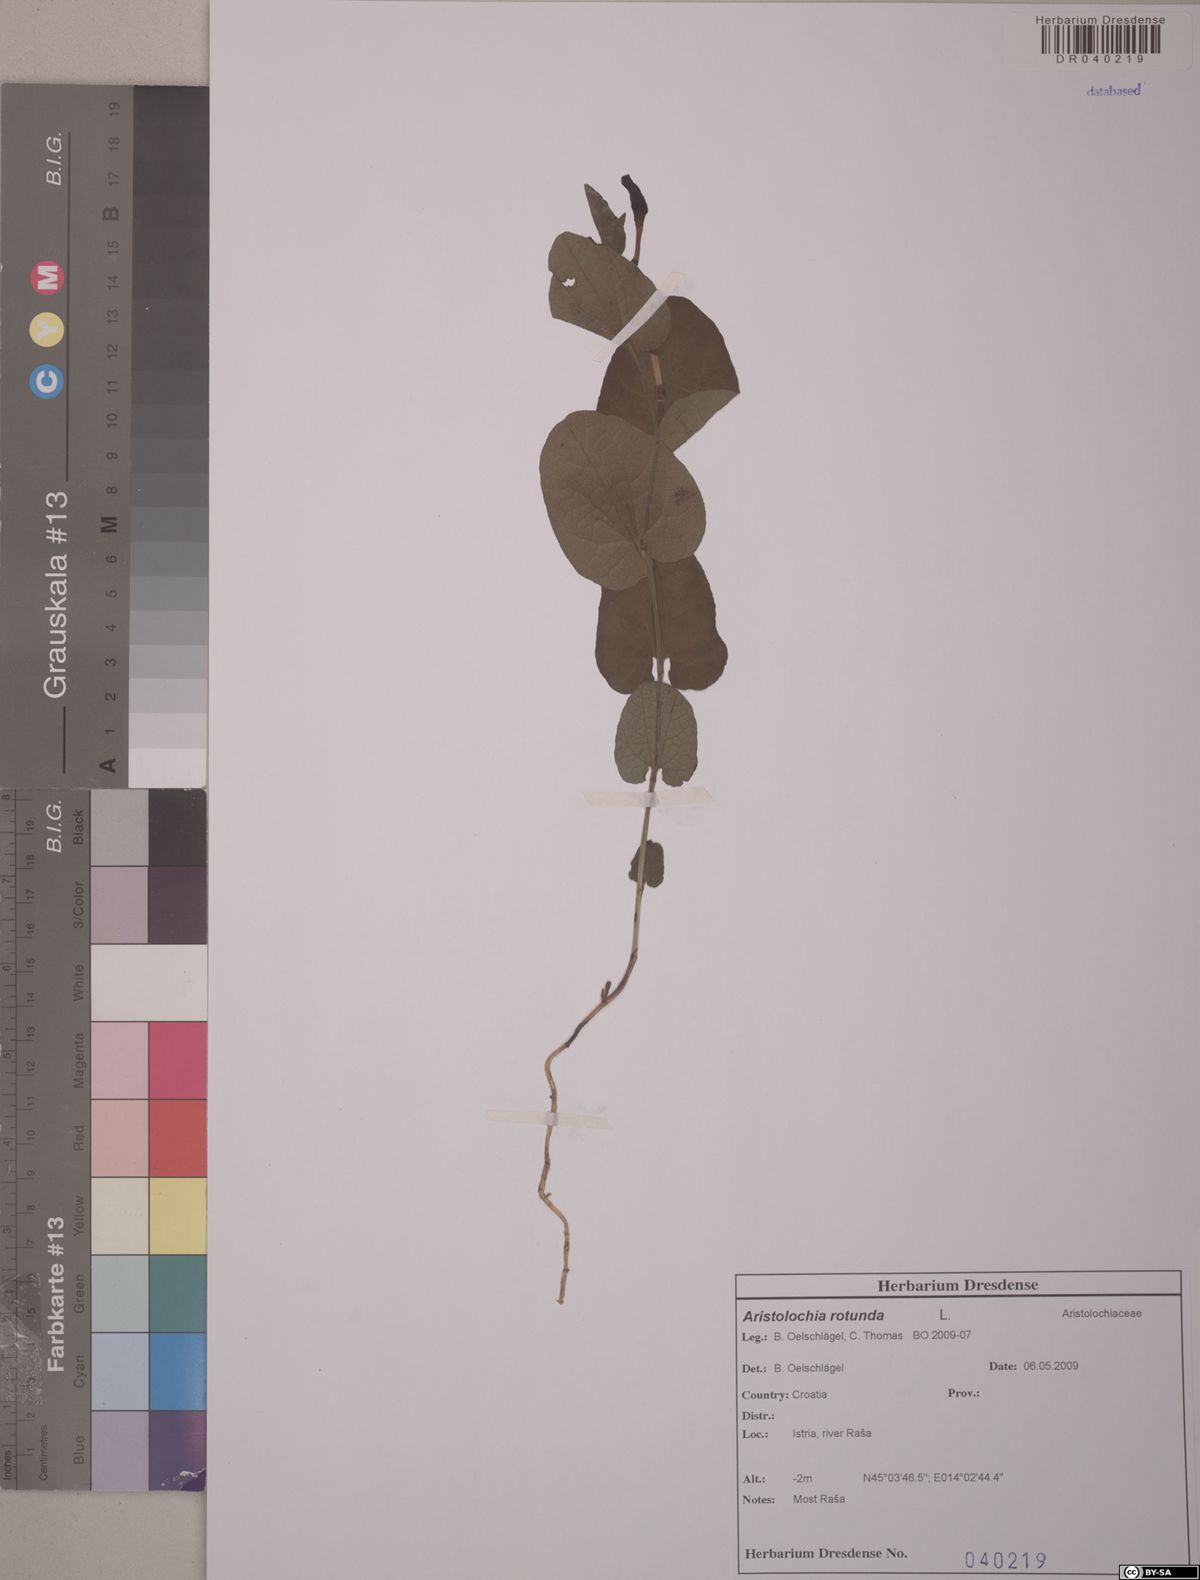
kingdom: Plantae
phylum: Tracheophyta
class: Magnoliopsida
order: Piperales
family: Aristolochiaceae
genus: Aristolochia
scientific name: Aristolochia rotunda
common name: Smearwort
